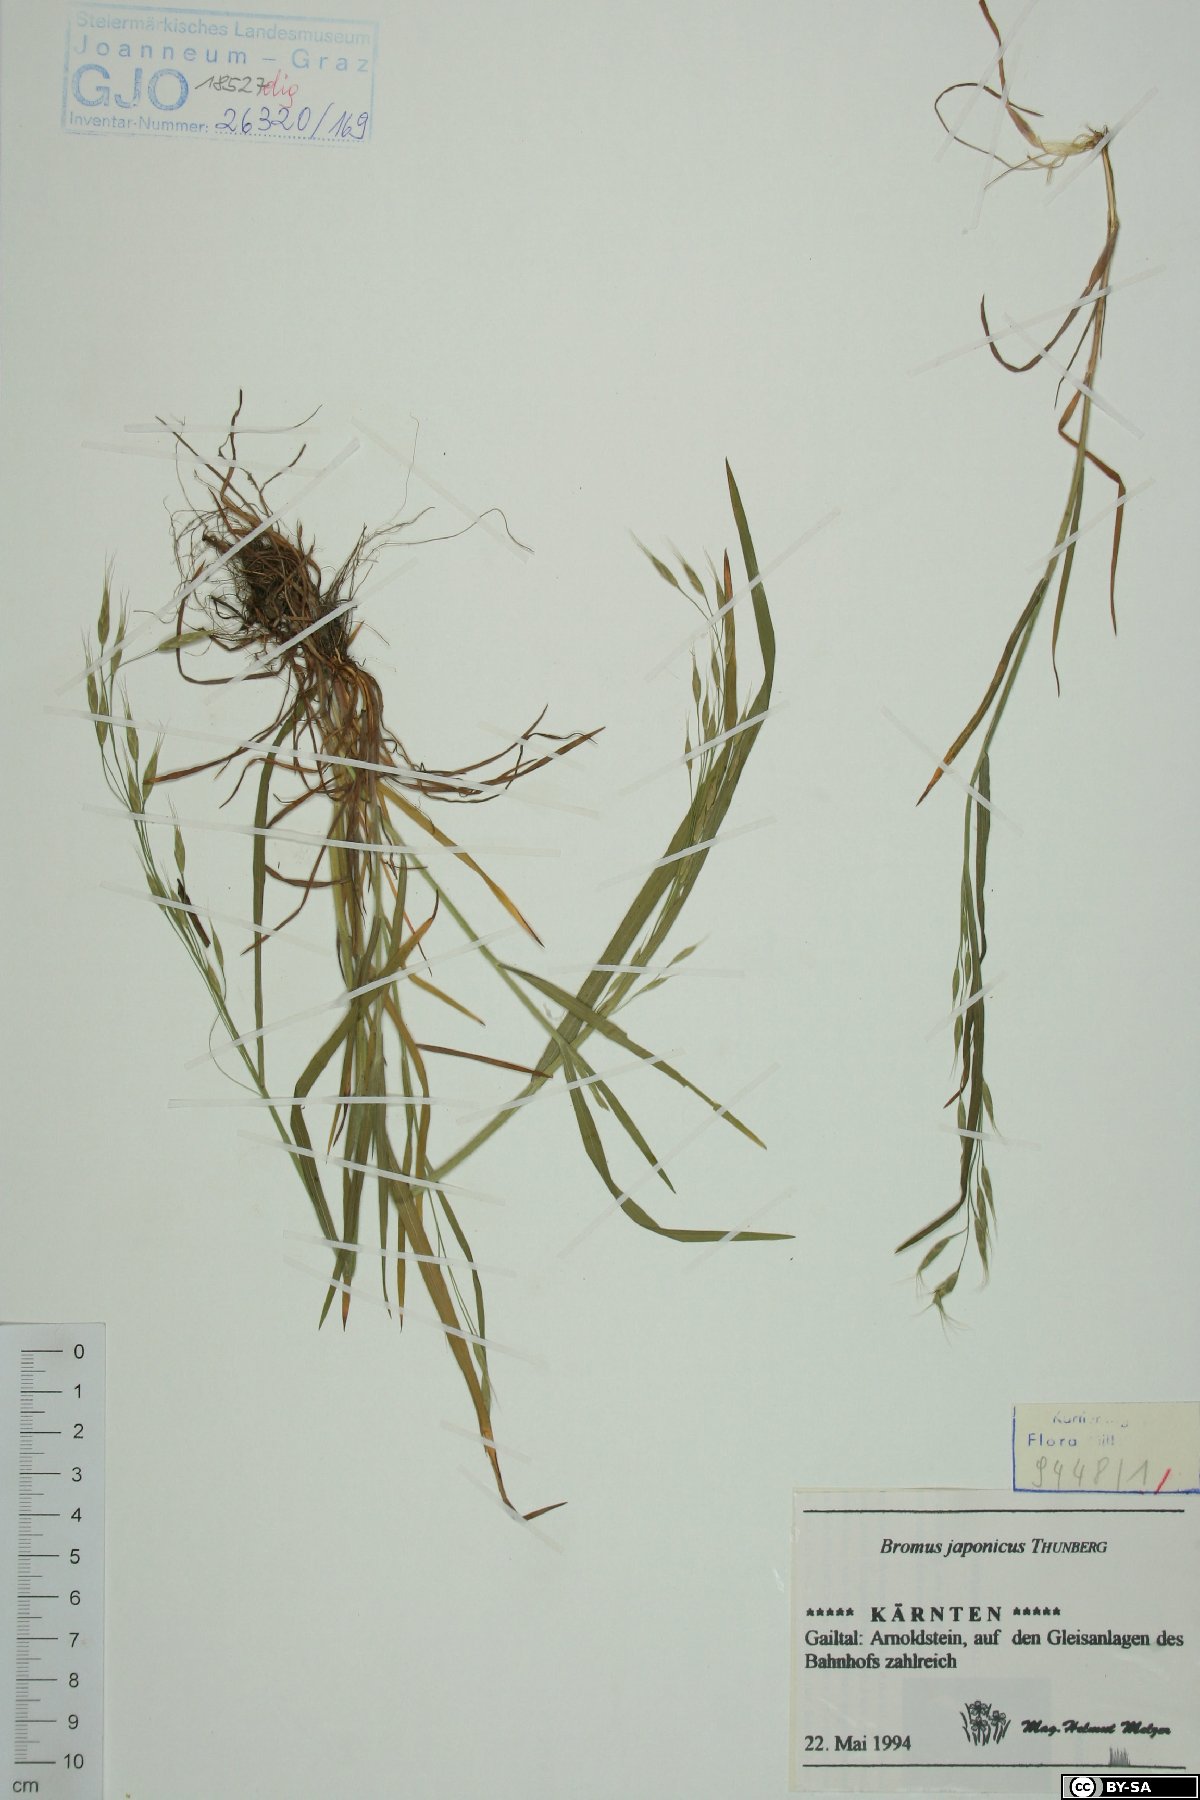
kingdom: Plantae
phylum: Tracheophyta
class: Liliopsida
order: Poales
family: Poaceae
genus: Bromus
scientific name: Bromus japonicus
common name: Japanese brome
